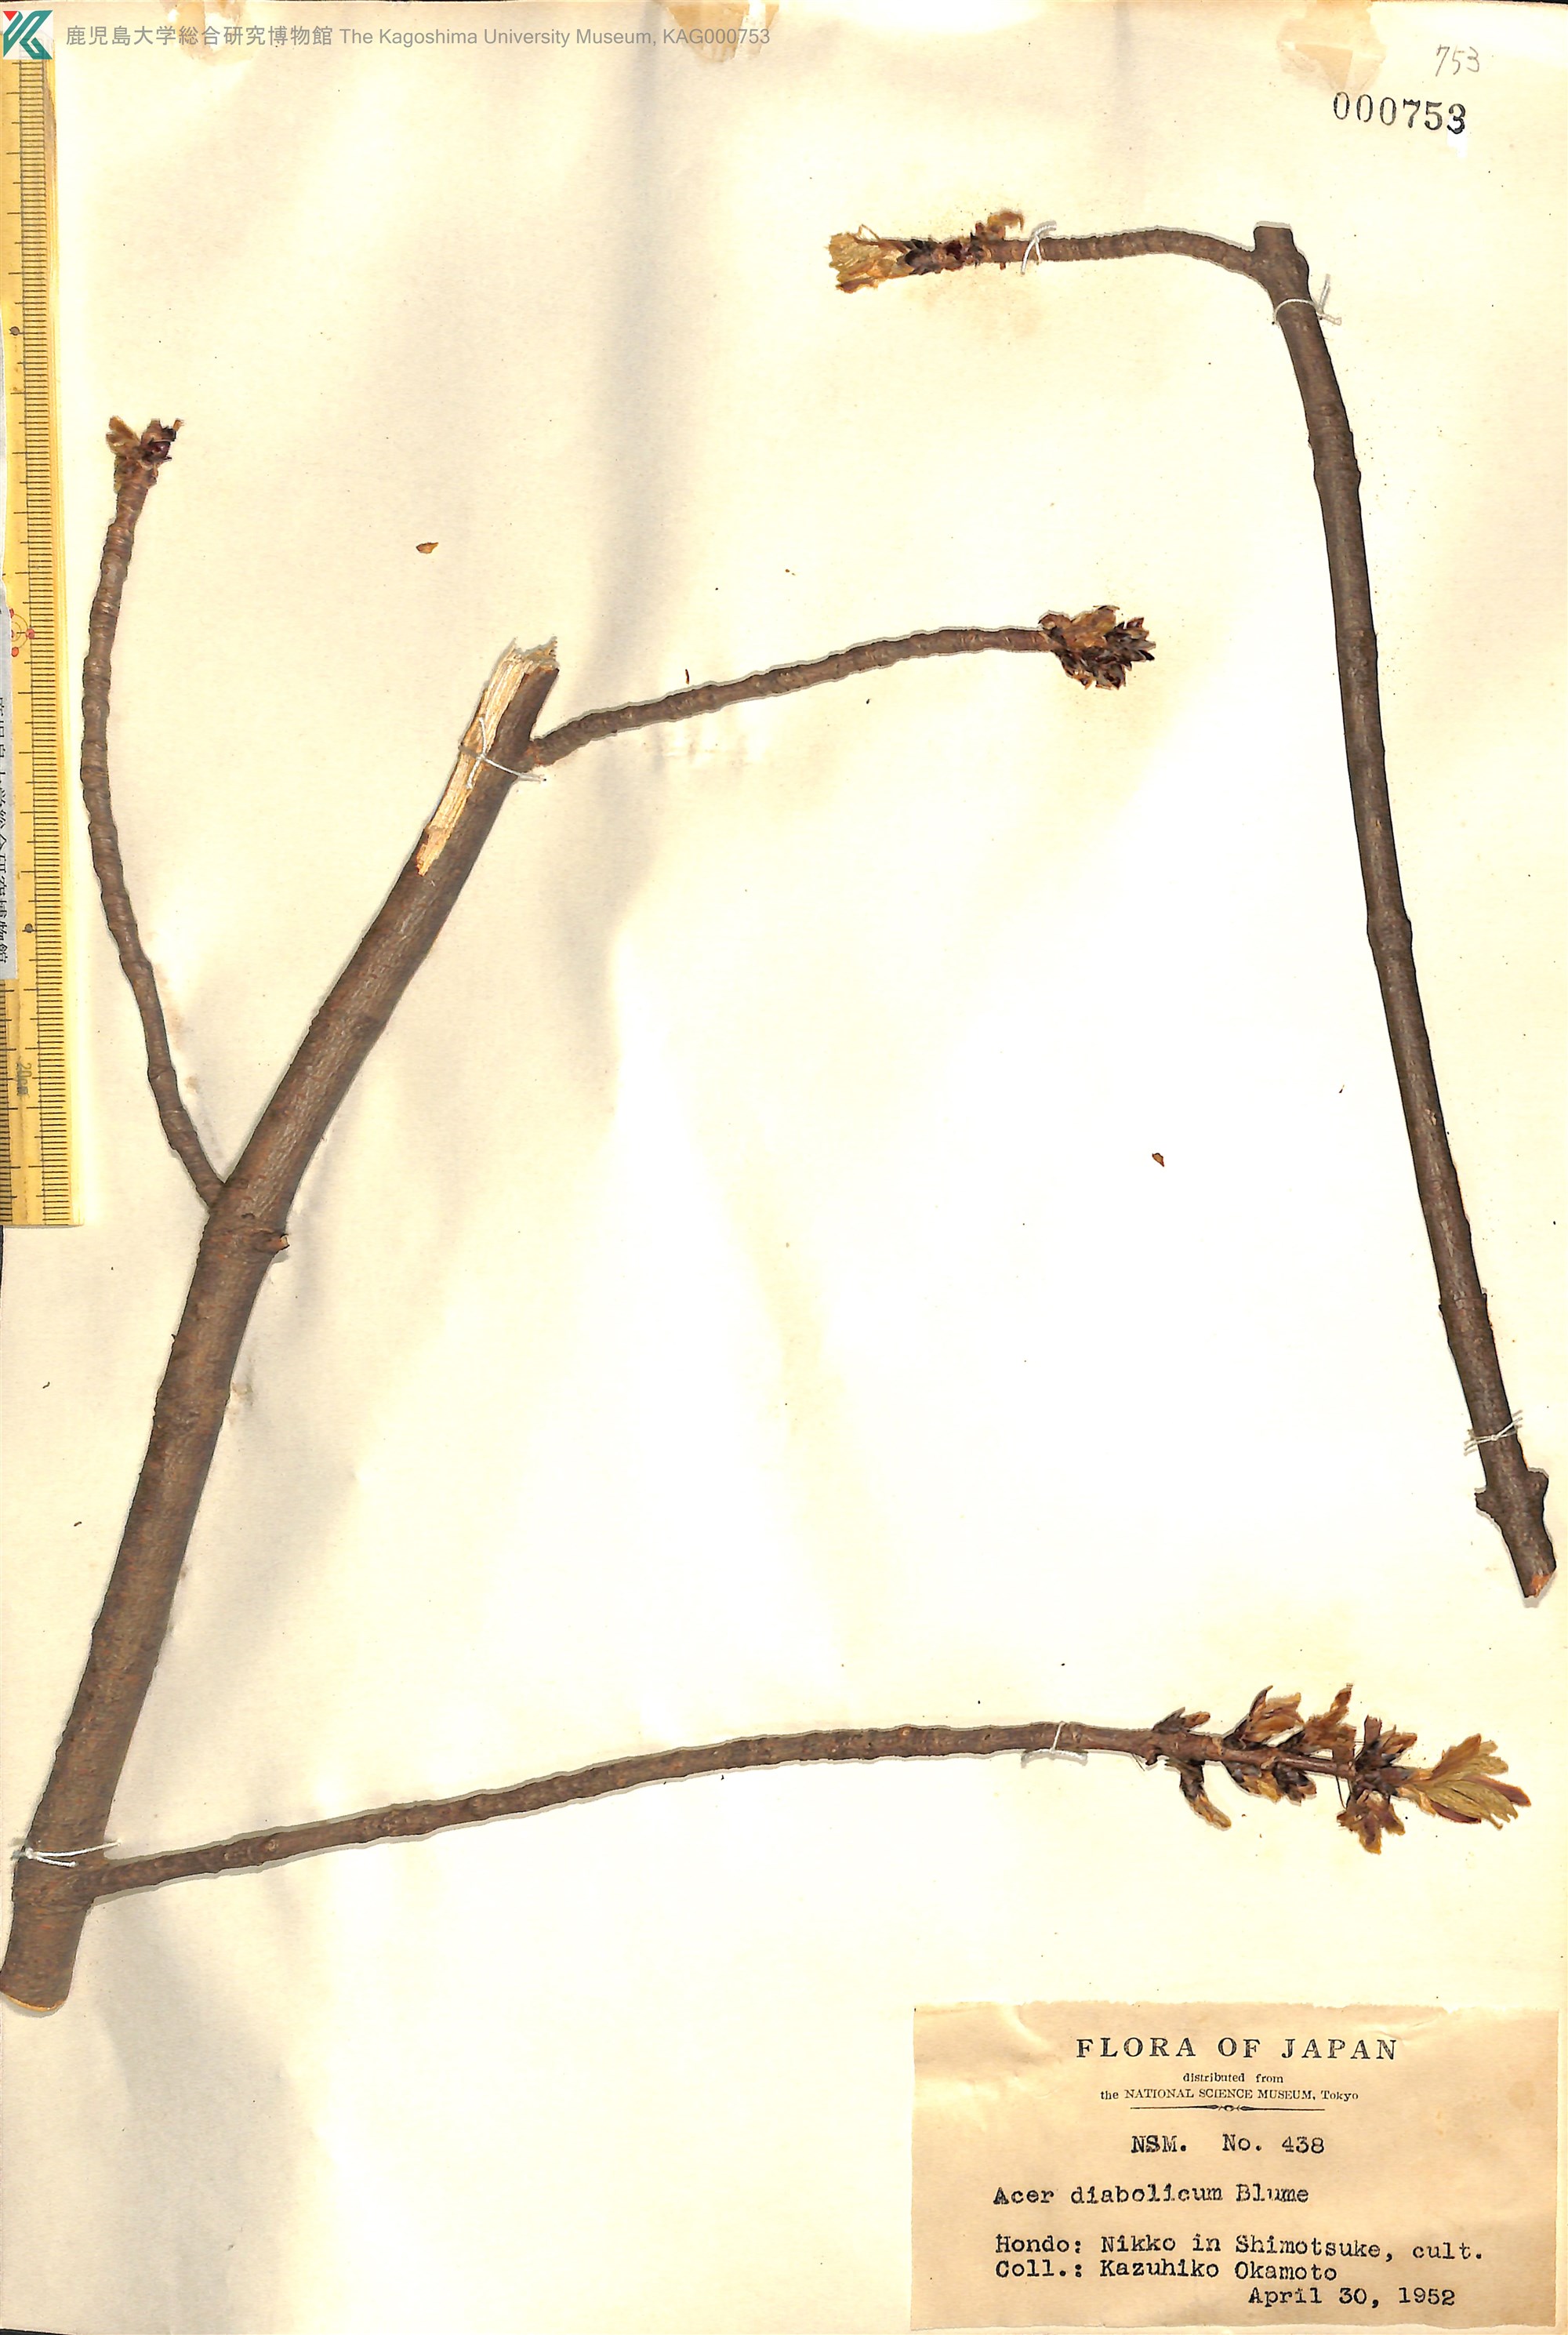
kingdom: Plantae
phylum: Tracheophyta
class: Magnoliopsida
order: Sapindales
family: Sapindaceae
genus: Acer
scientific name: Acer diabolicum
